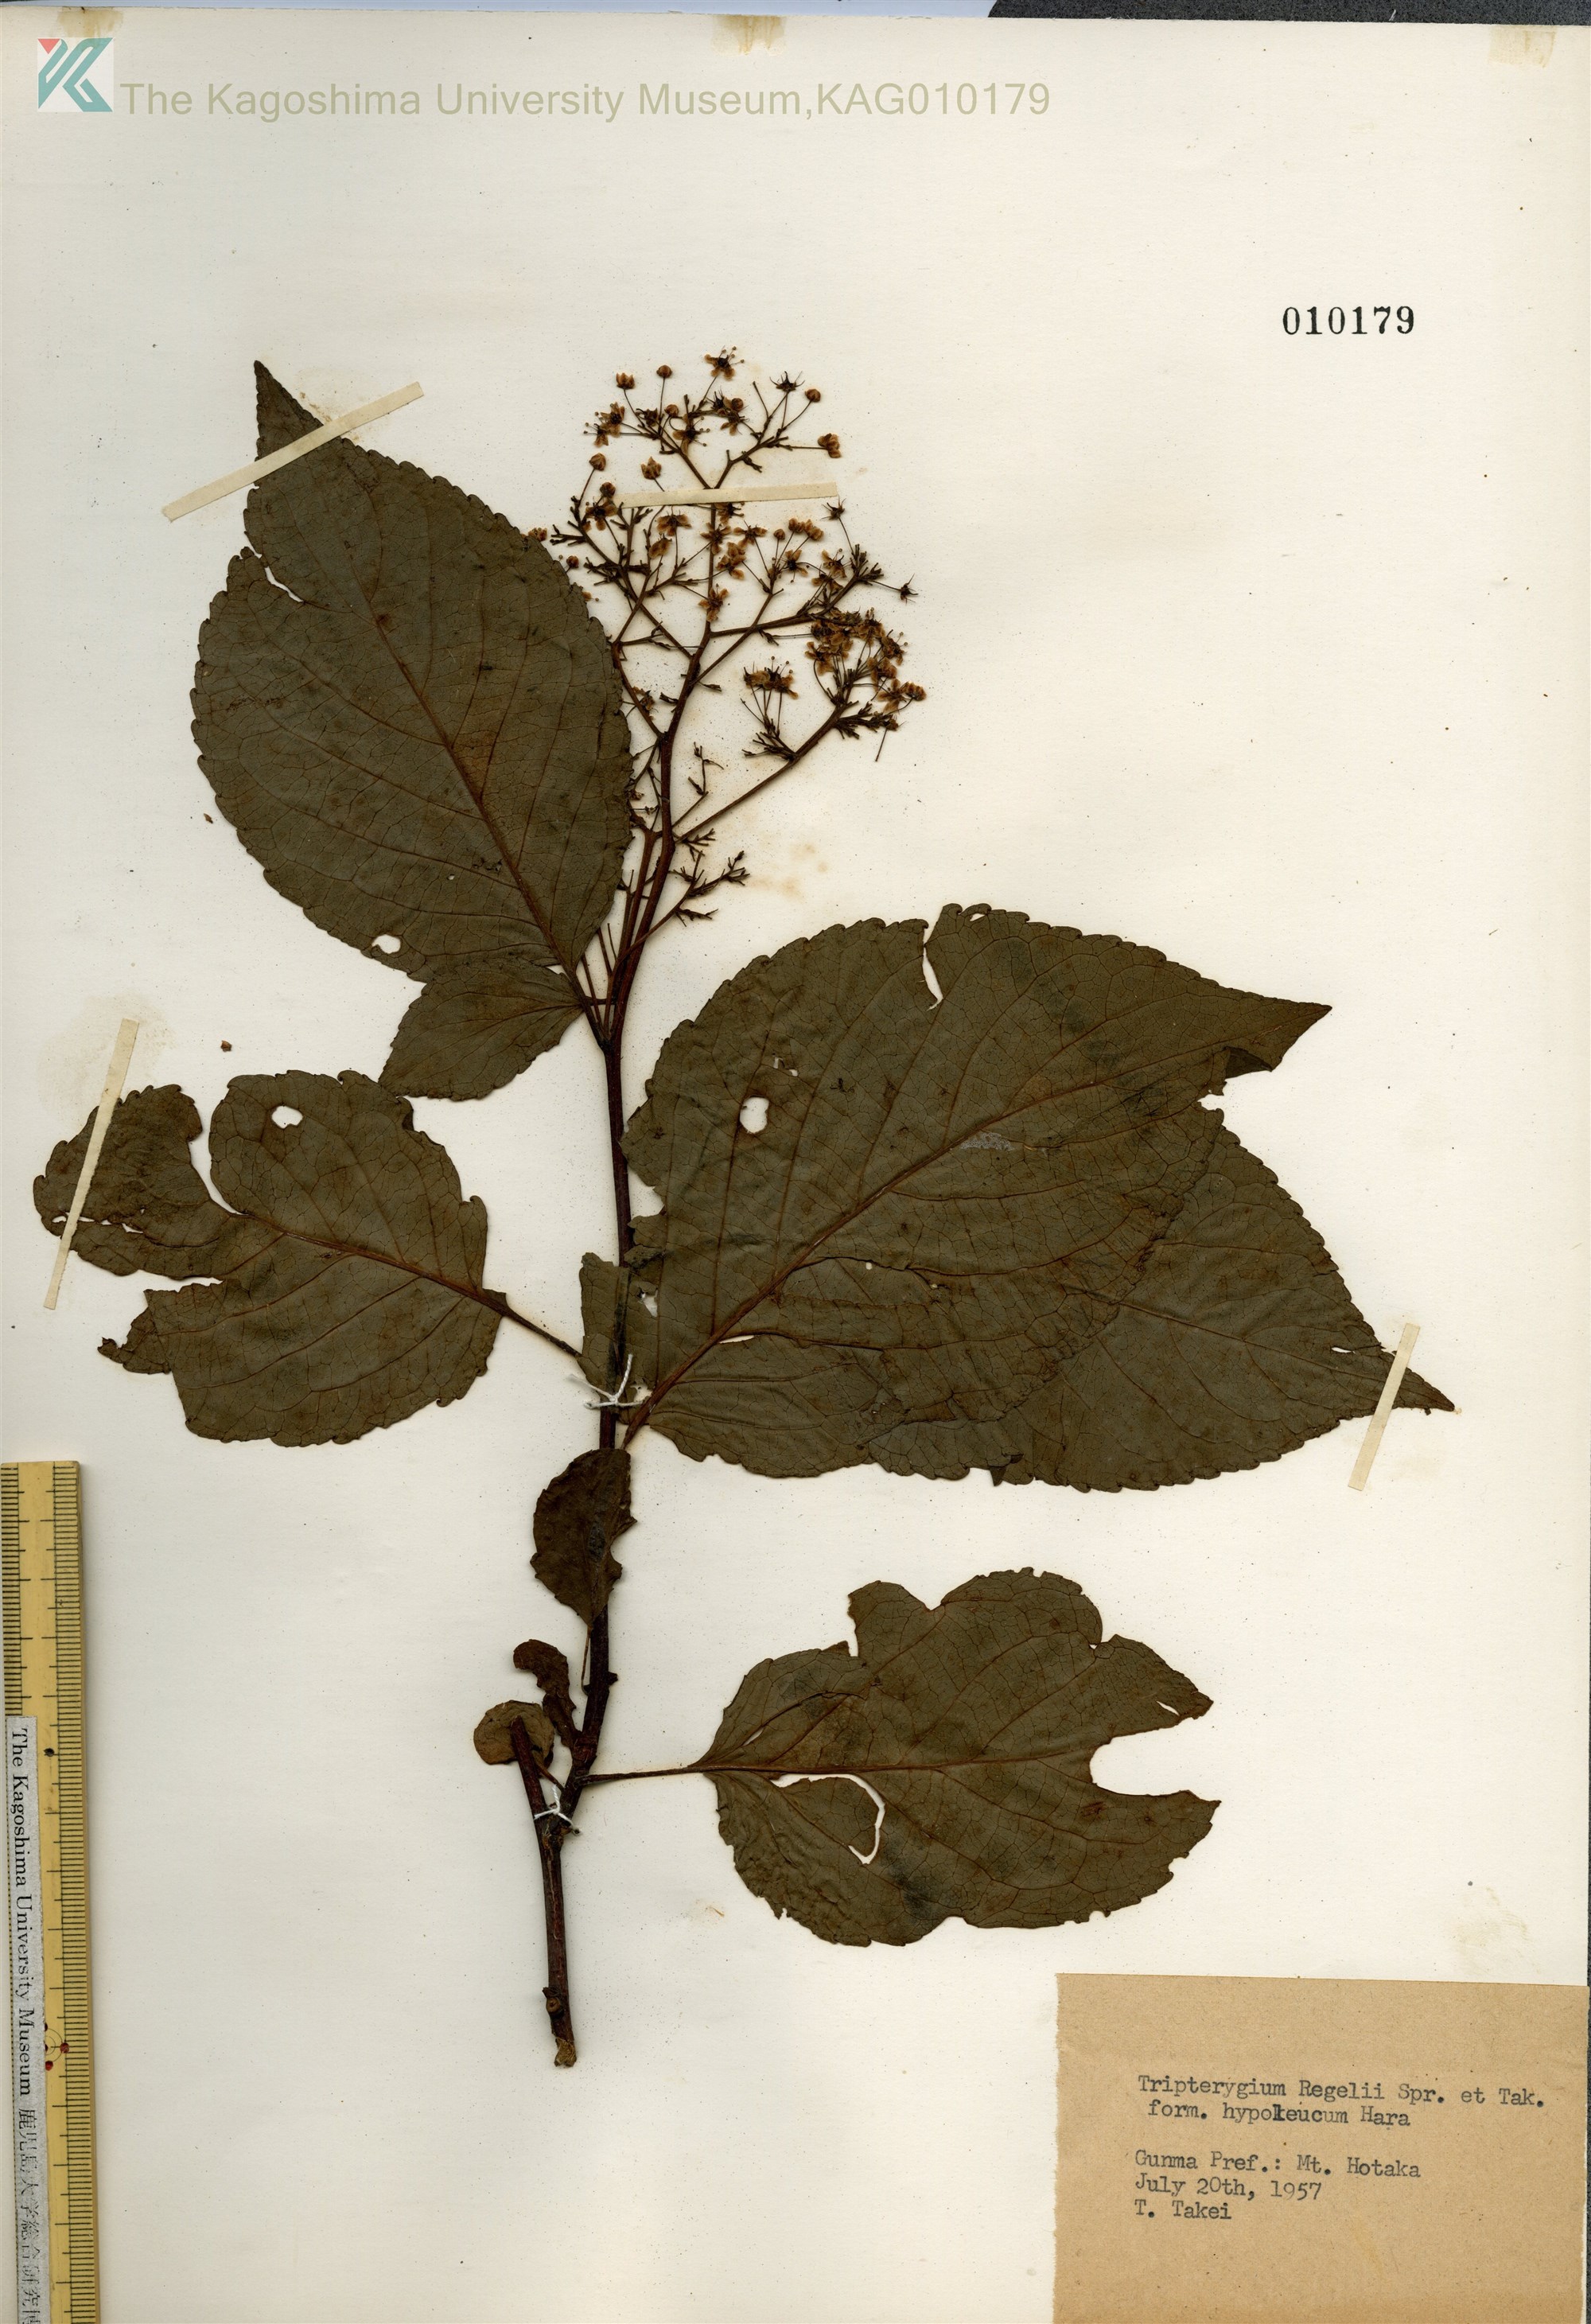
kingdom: Plantae
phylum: Tracheophyta
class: Magnoliopsida
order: Celastrales
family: Celastraceae
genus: Tripterygium
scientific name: Tripterygium wilfordii
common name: クロヅル
